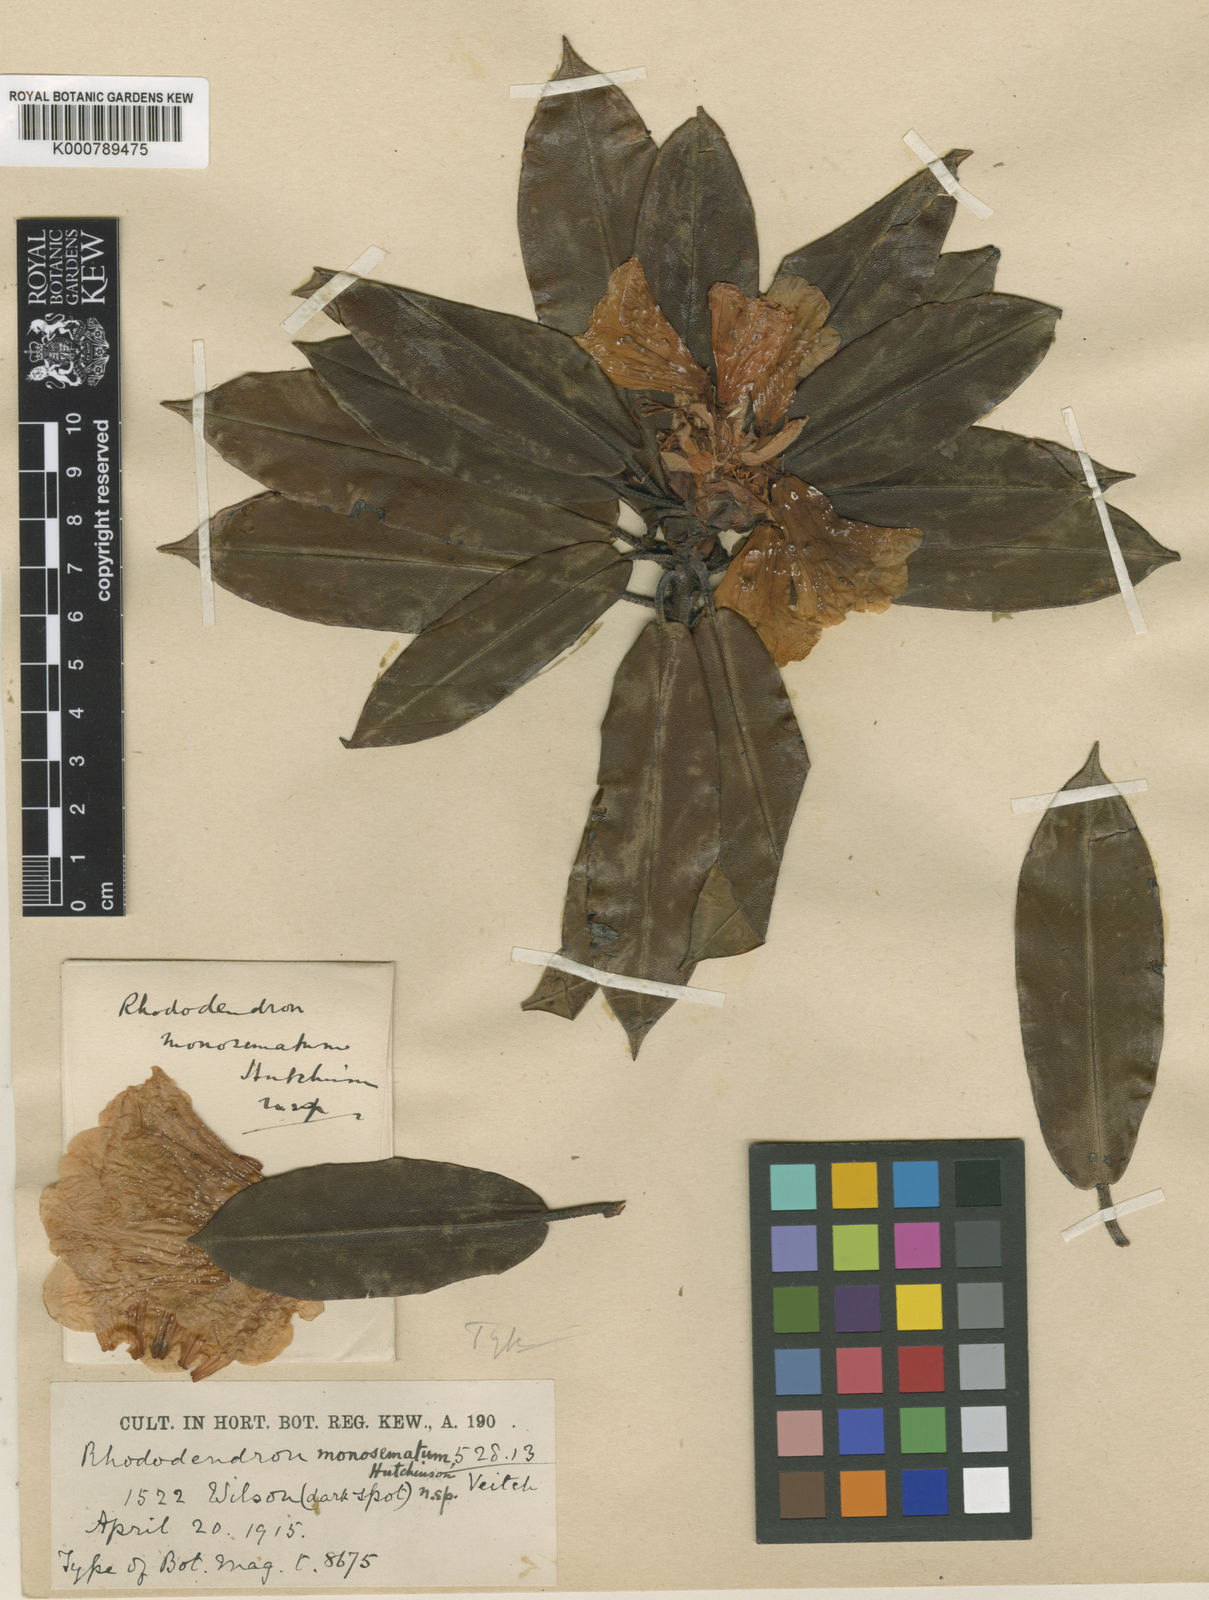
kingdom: Plantae
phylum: Tracheophyta
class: Magnoliopsida
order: Ericales
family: Ericaceae
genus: Rhododendron
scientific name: Rhododendron
